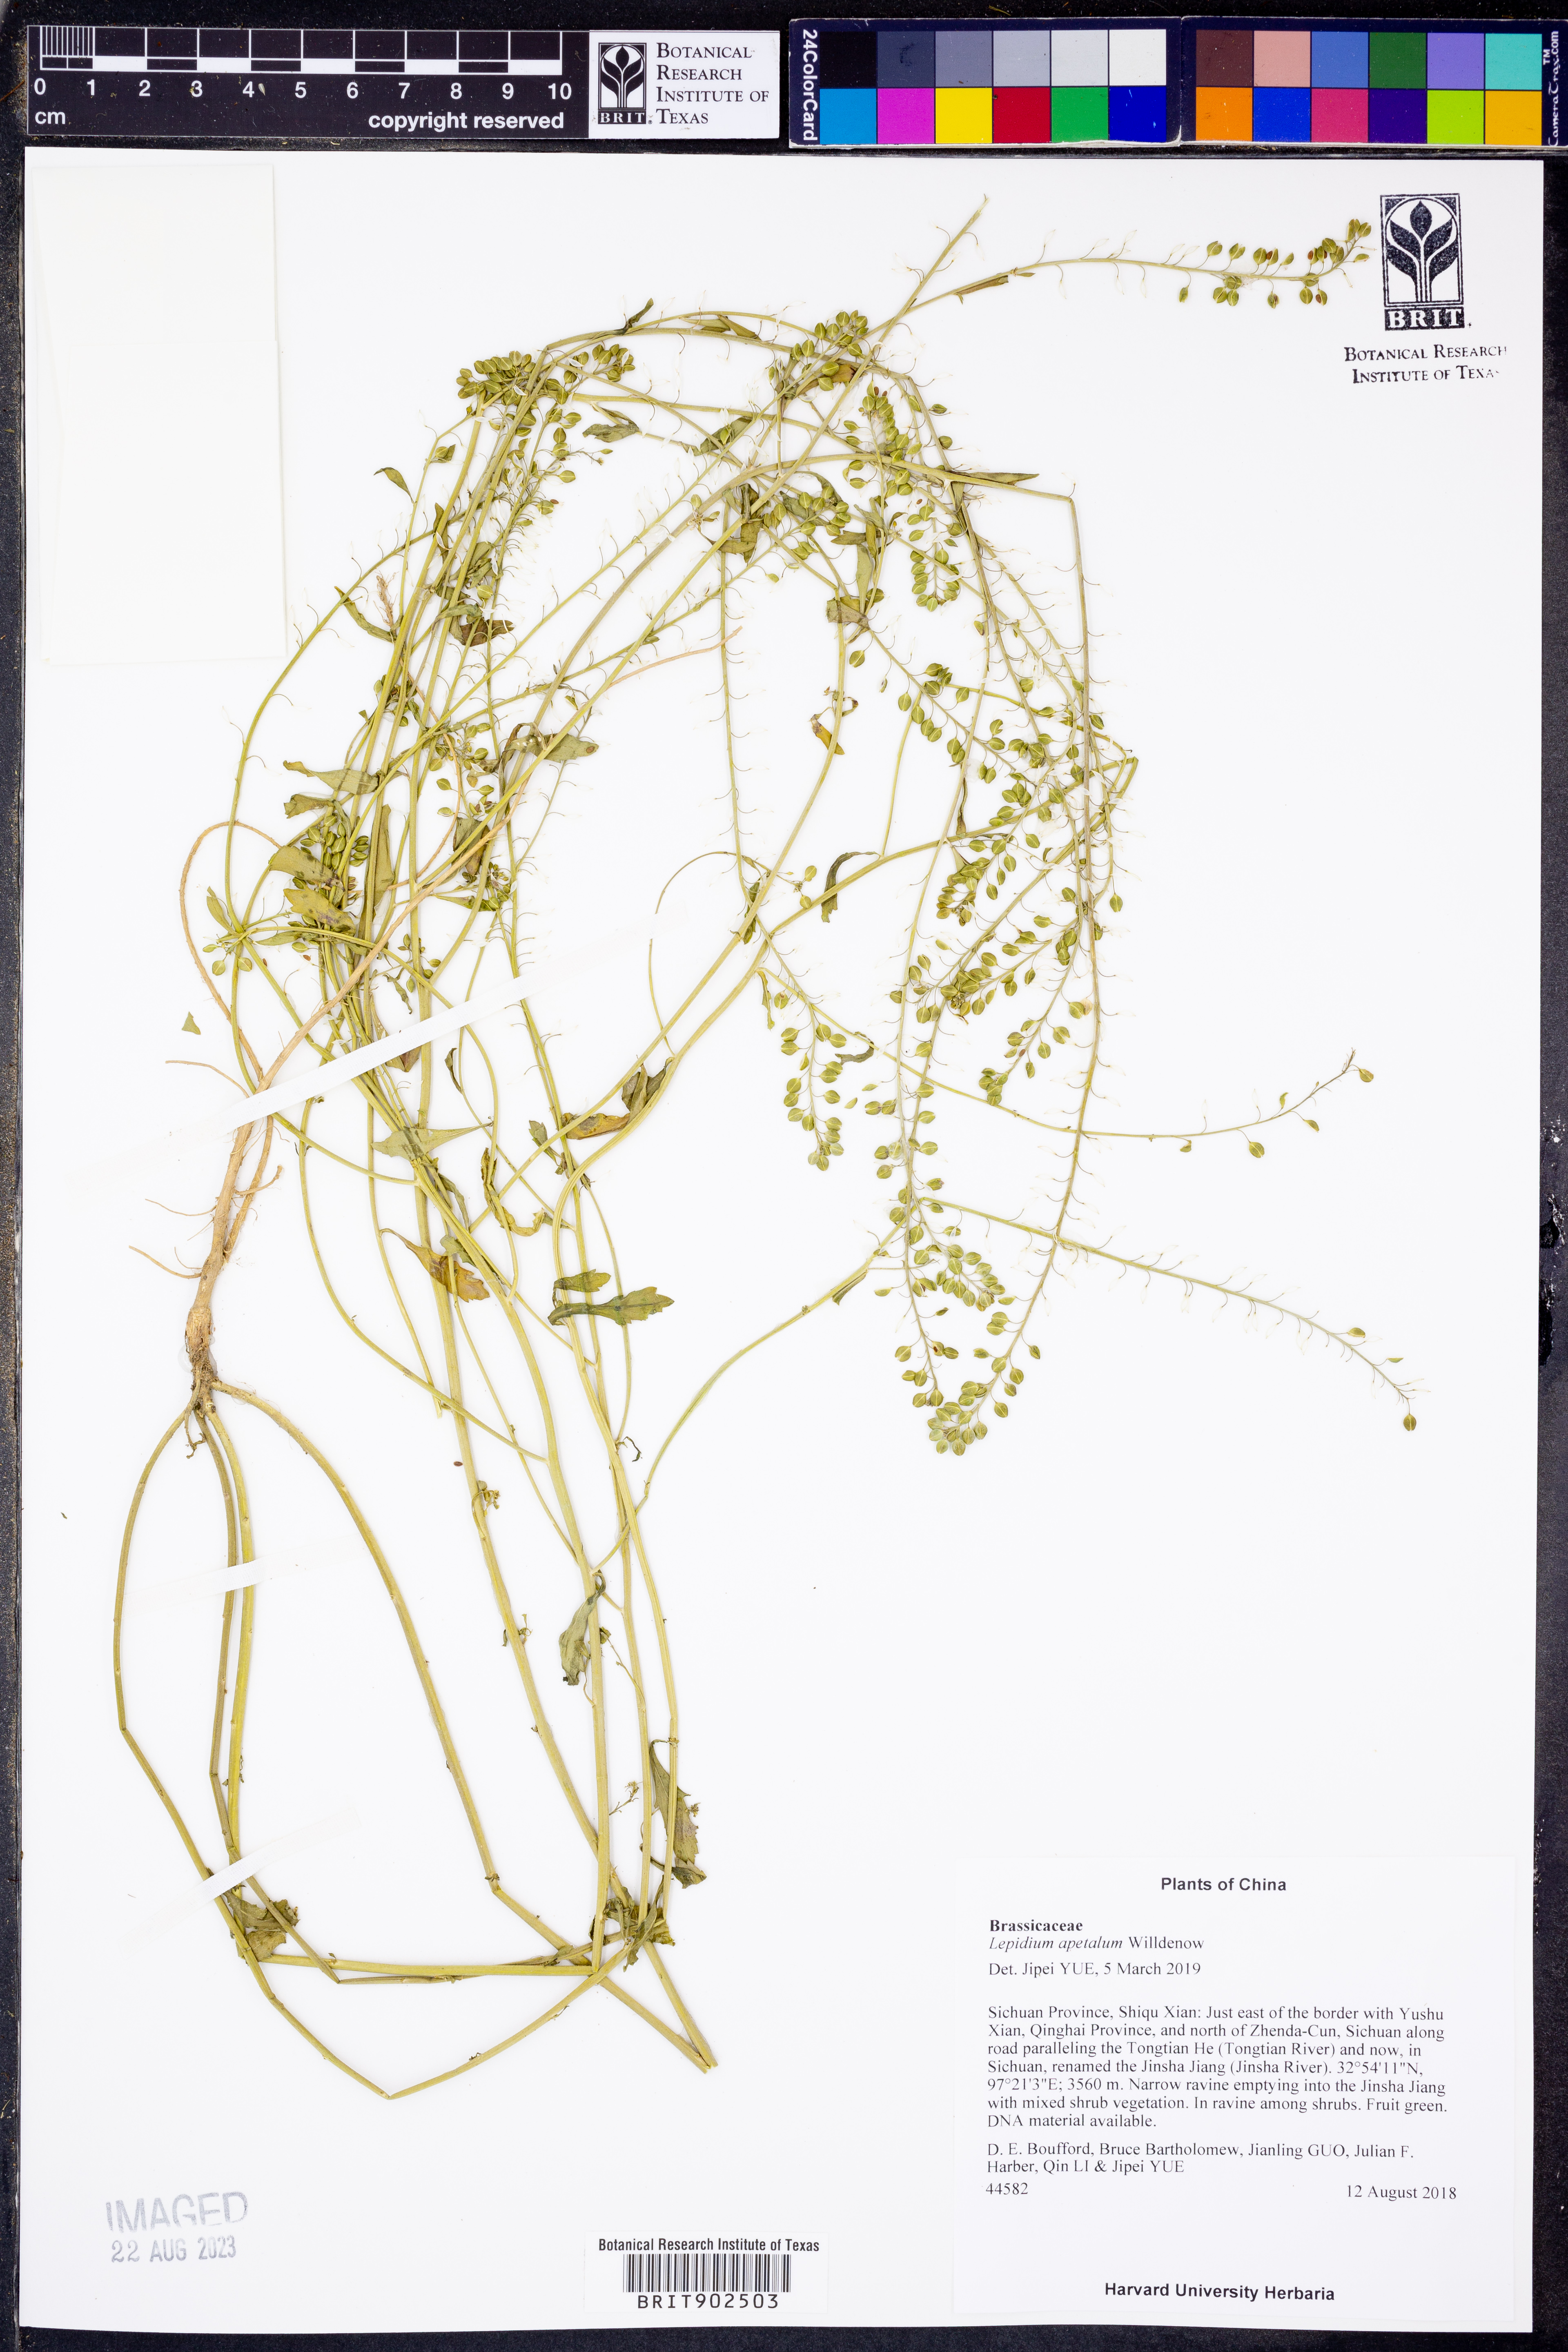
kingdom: Plantae
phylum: Tracheophyta
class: Magnoliopsida
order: Brassicales
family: Brassicaceae
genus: Lepidium
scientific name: Lepidium apetalum
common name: Pepperweed
